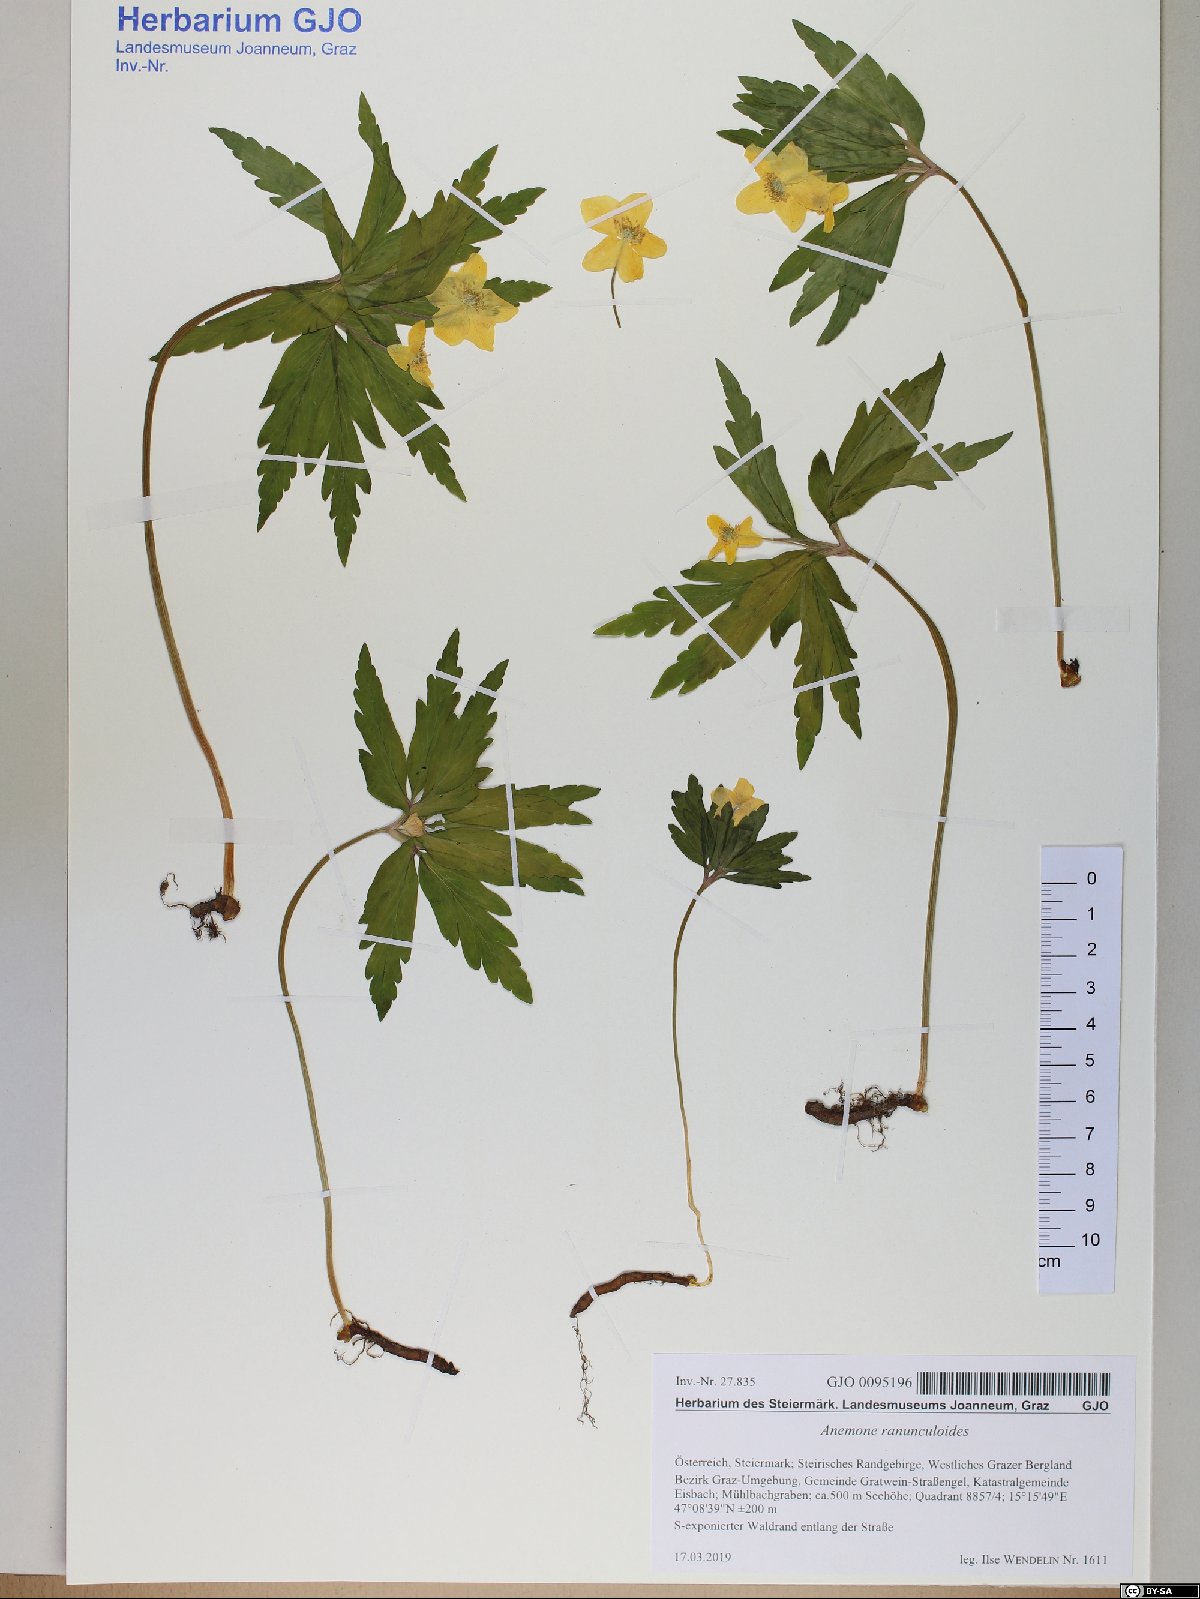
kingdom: Plantae
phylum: Tracheophyta
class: Magnoliopsida
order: Ranunculales
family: Ranunculaceae
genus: Anemone
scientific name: Anemone ranunculoides
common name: Yellow anemone
